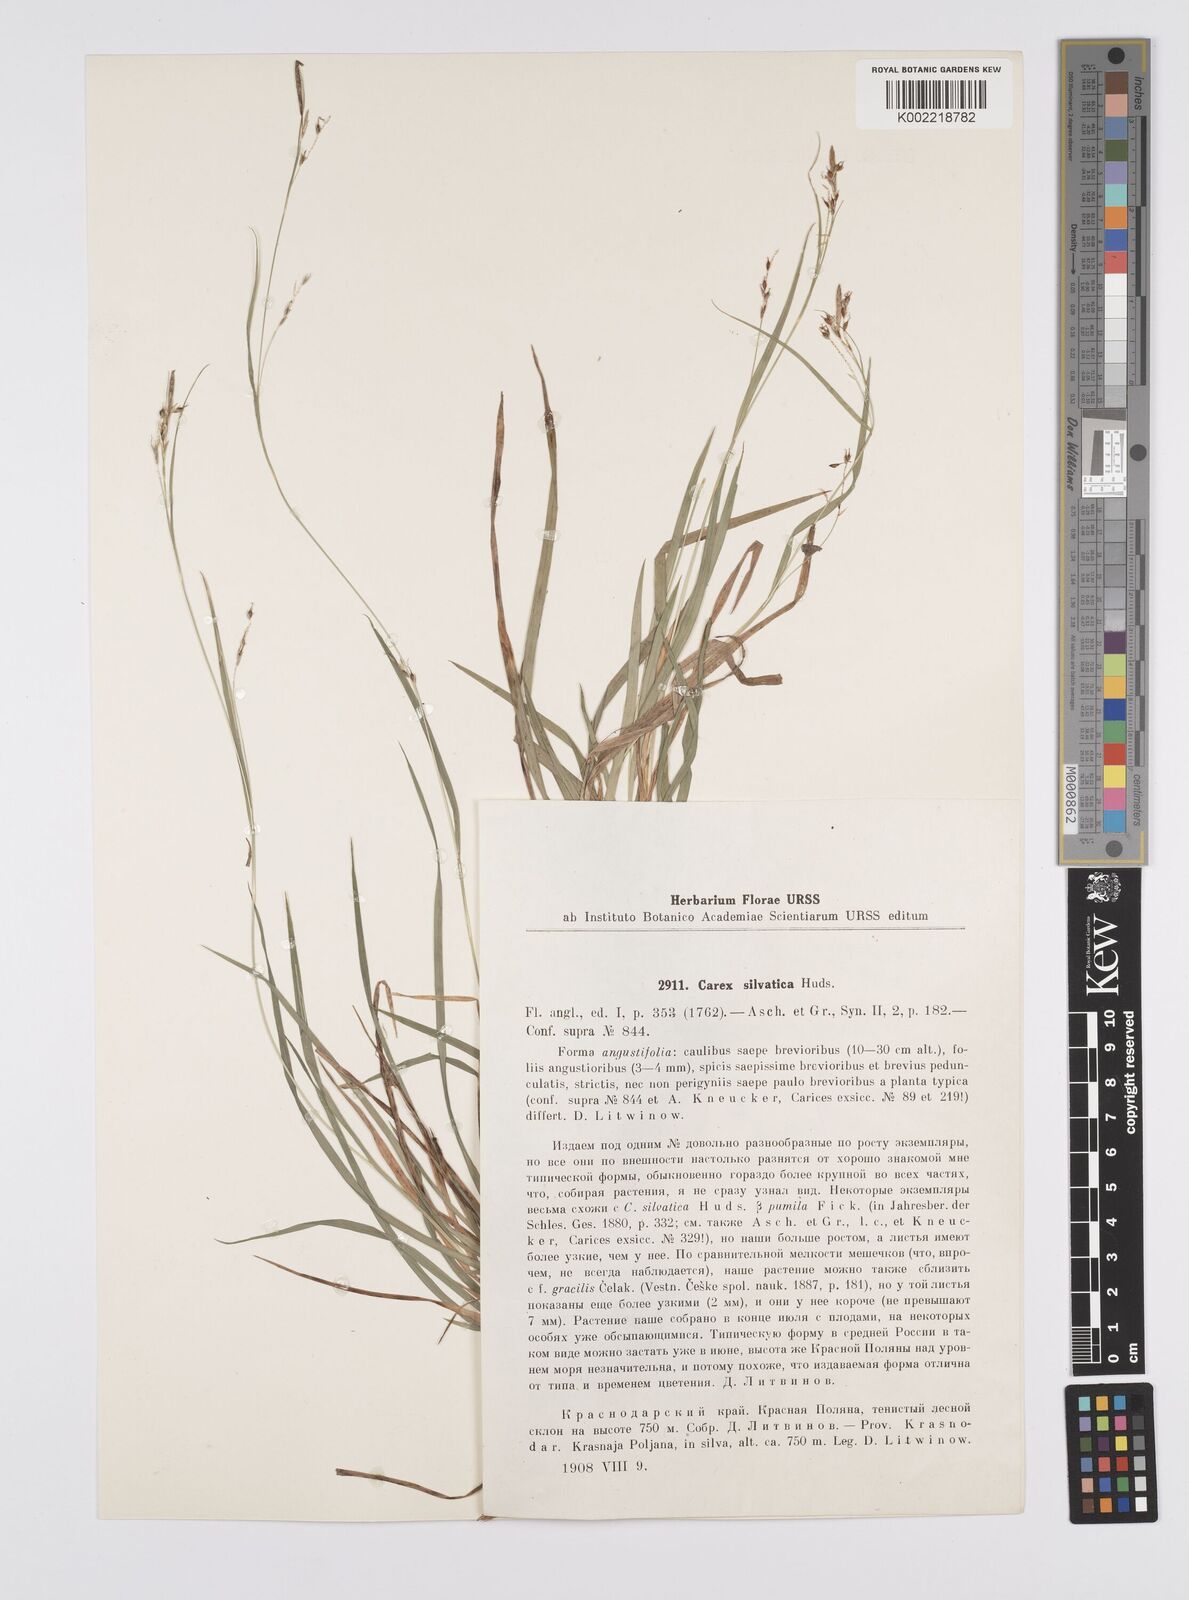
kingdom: Plantae
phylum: Tracheophyta
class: Liliopsida
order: Poales
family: Cyperaceae
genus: Carex
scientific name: Carex arnellii
